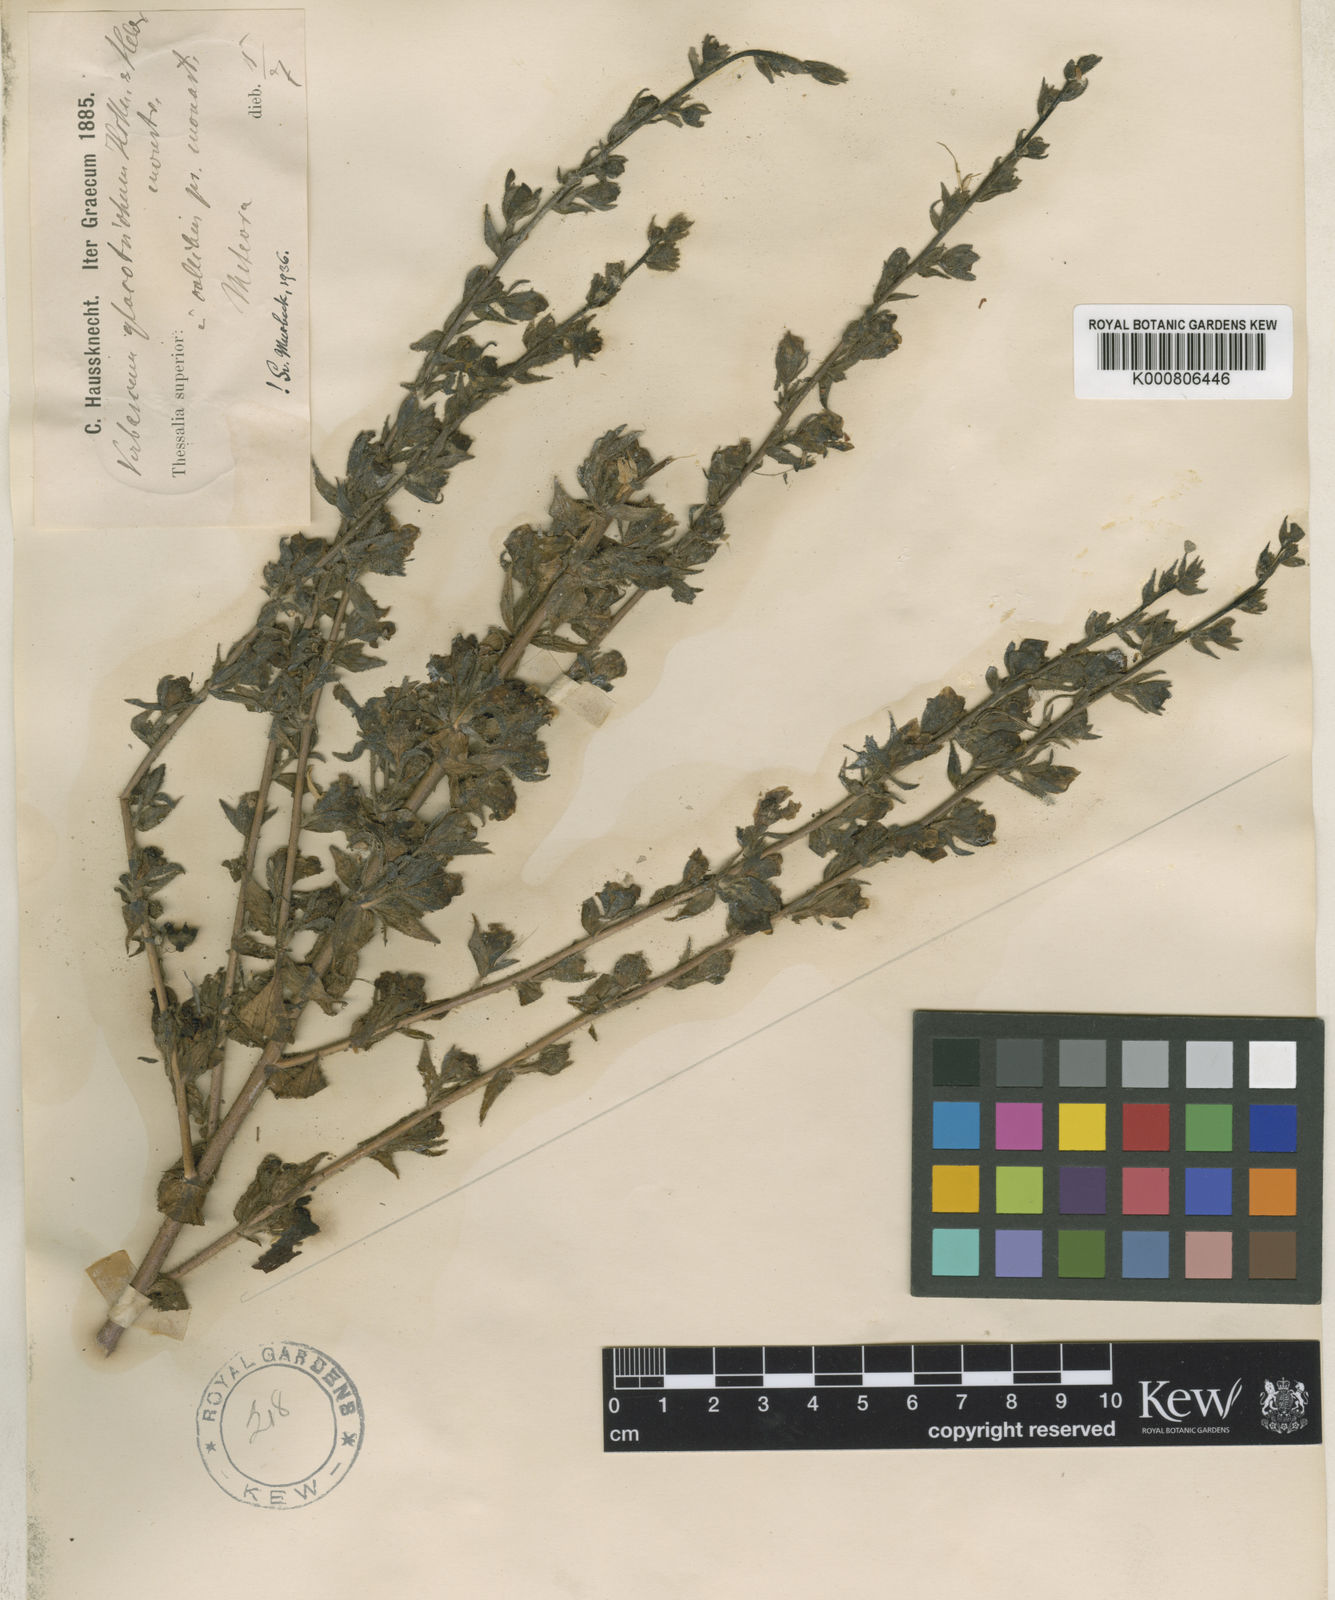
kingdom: Plantae
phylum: Tracheophyta
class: Magnoliopsida
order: Lamiales
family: Scrophulariaceae
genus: Verbascum
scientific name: Verbascum gloeotrichum
